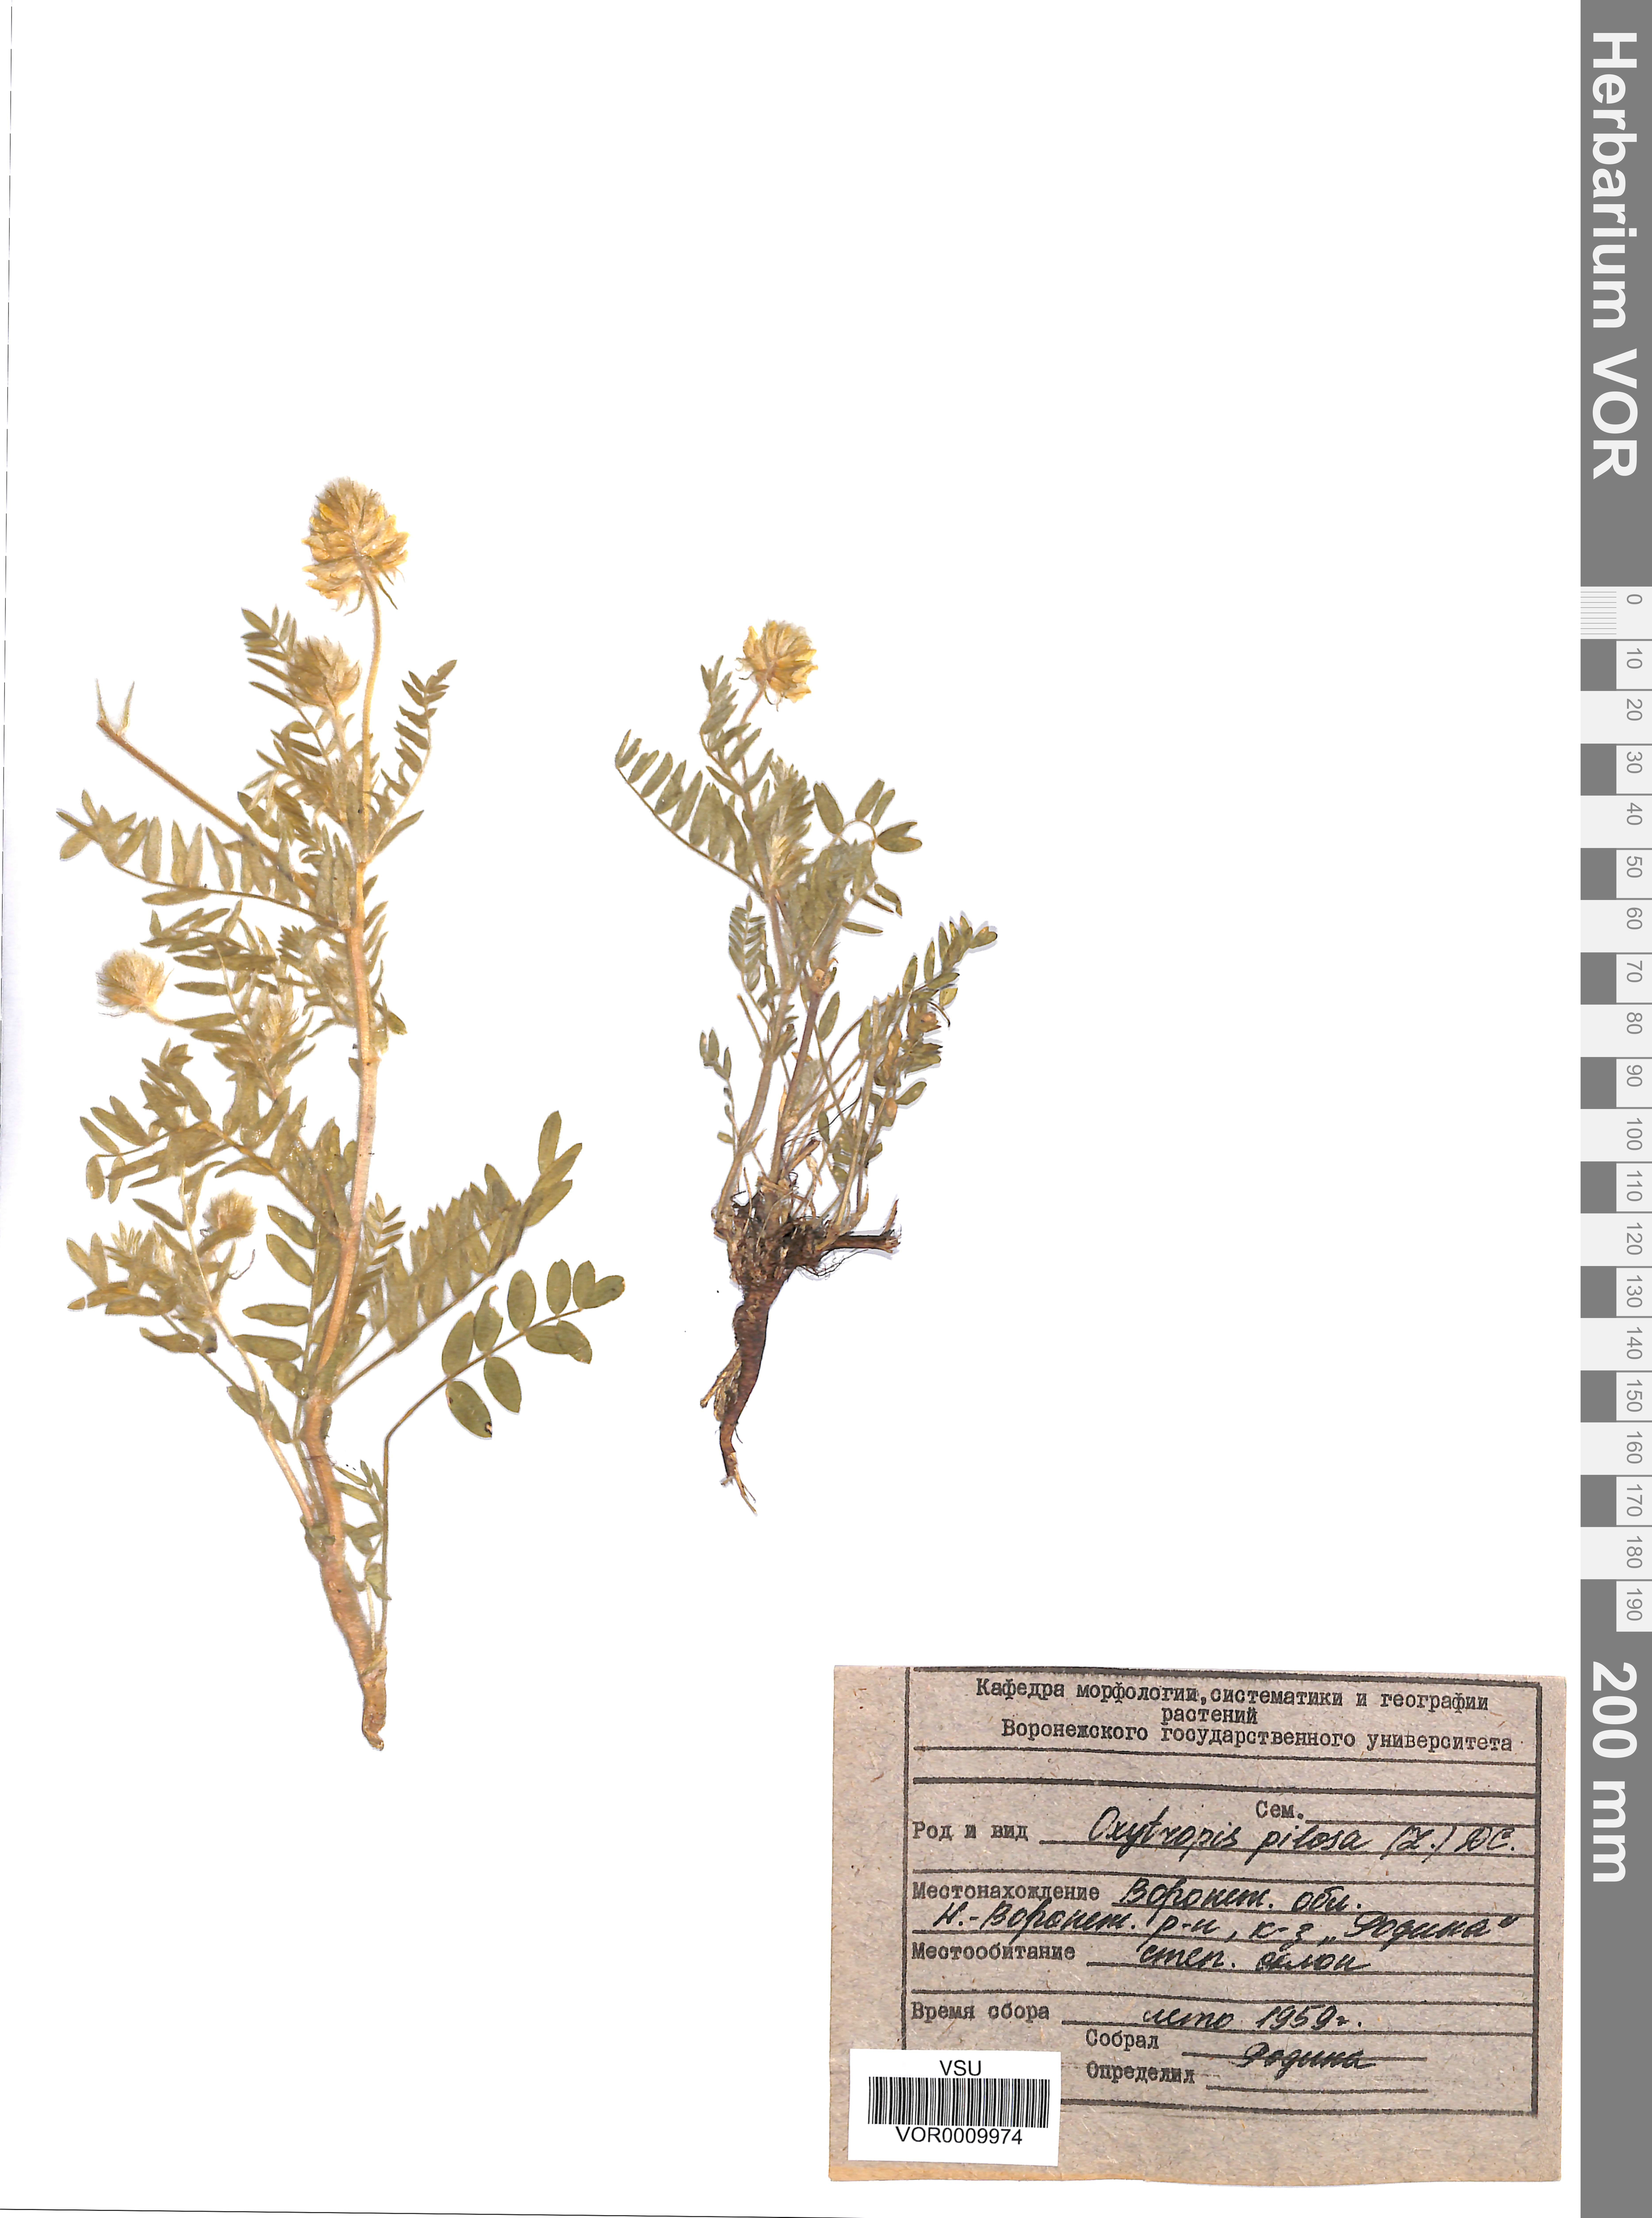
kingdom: Plantae
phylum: Tracheophyta
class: Magnoliopsida
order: Fabales
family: Fabaceae
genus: Oxytropis
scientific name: Oxytropis pilosa
